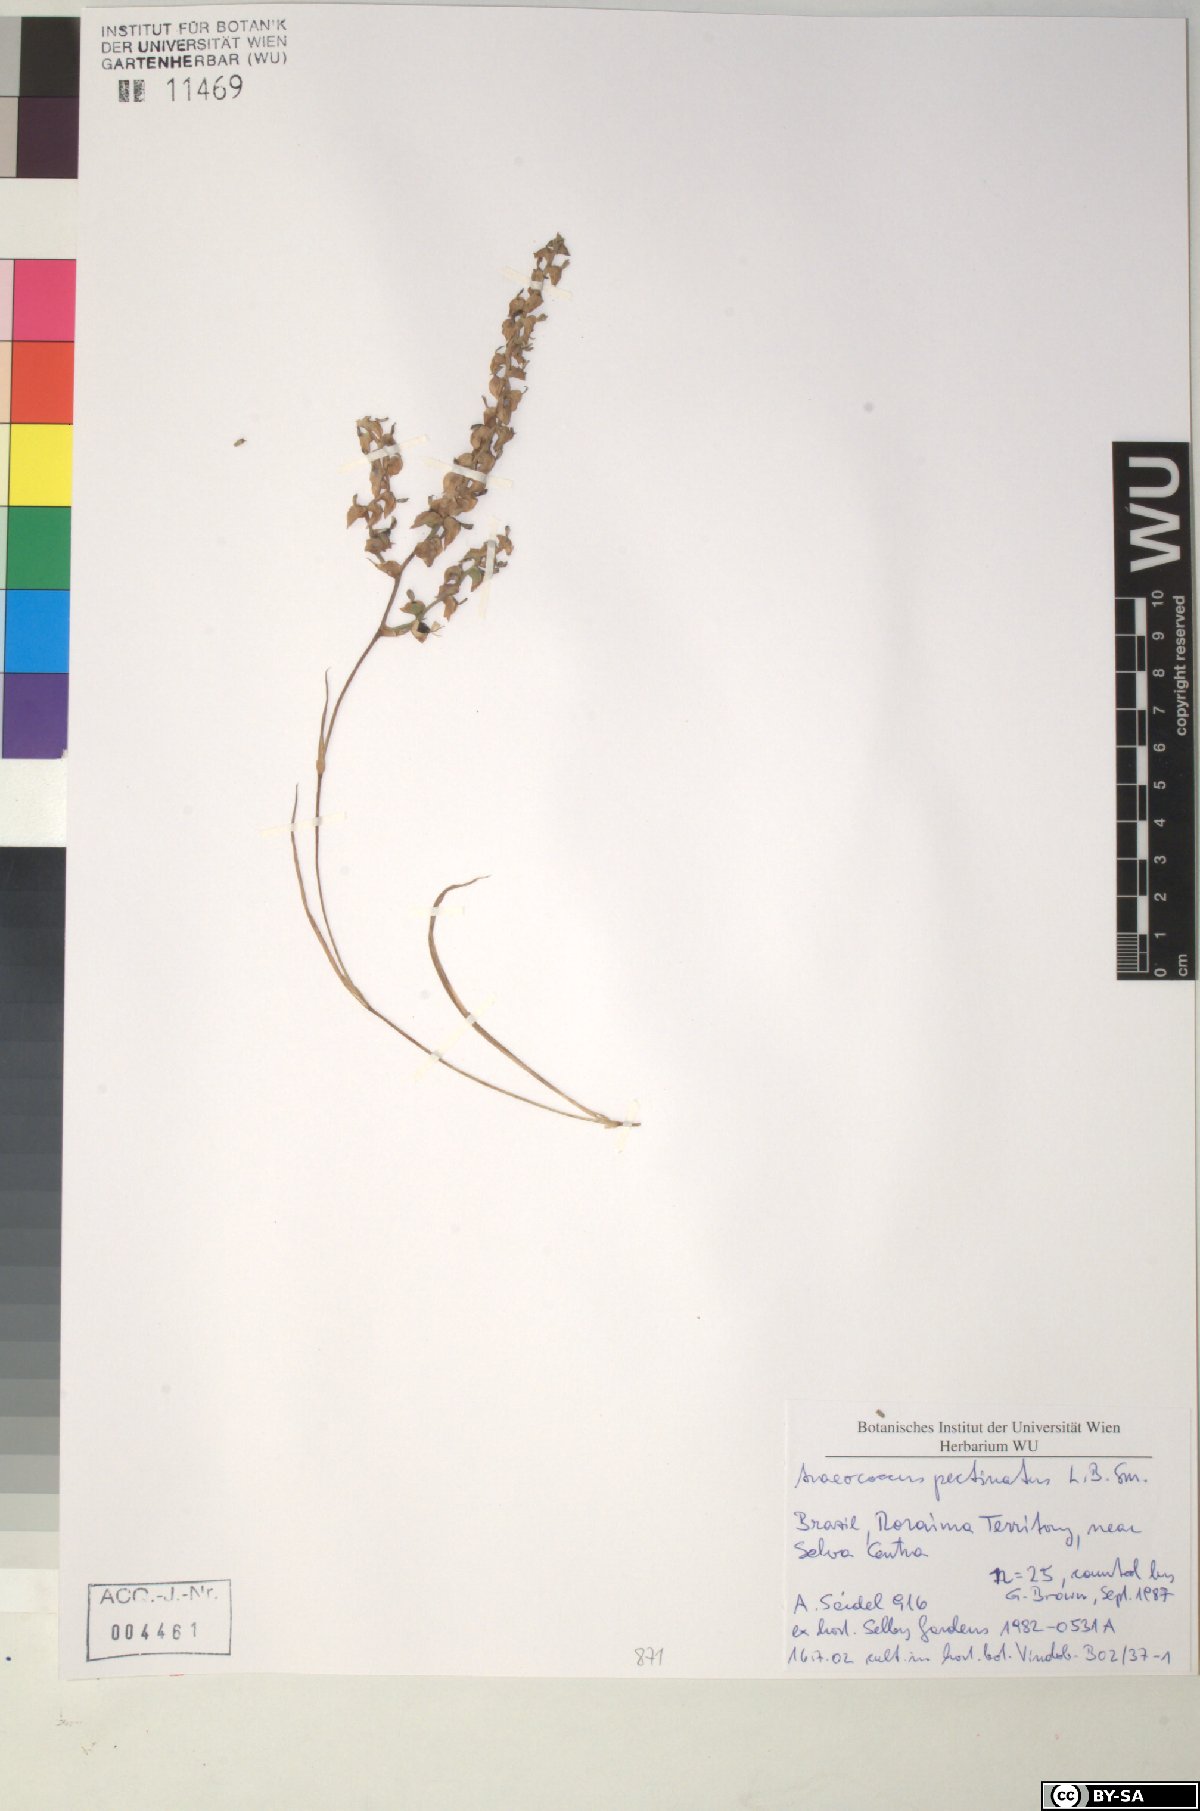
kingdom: Plantae
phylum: Tracheophyta
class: Liliopsida
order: Poales
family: Bromeliaceae
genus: Araeococcus
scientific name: Araeococcus pectinatus
